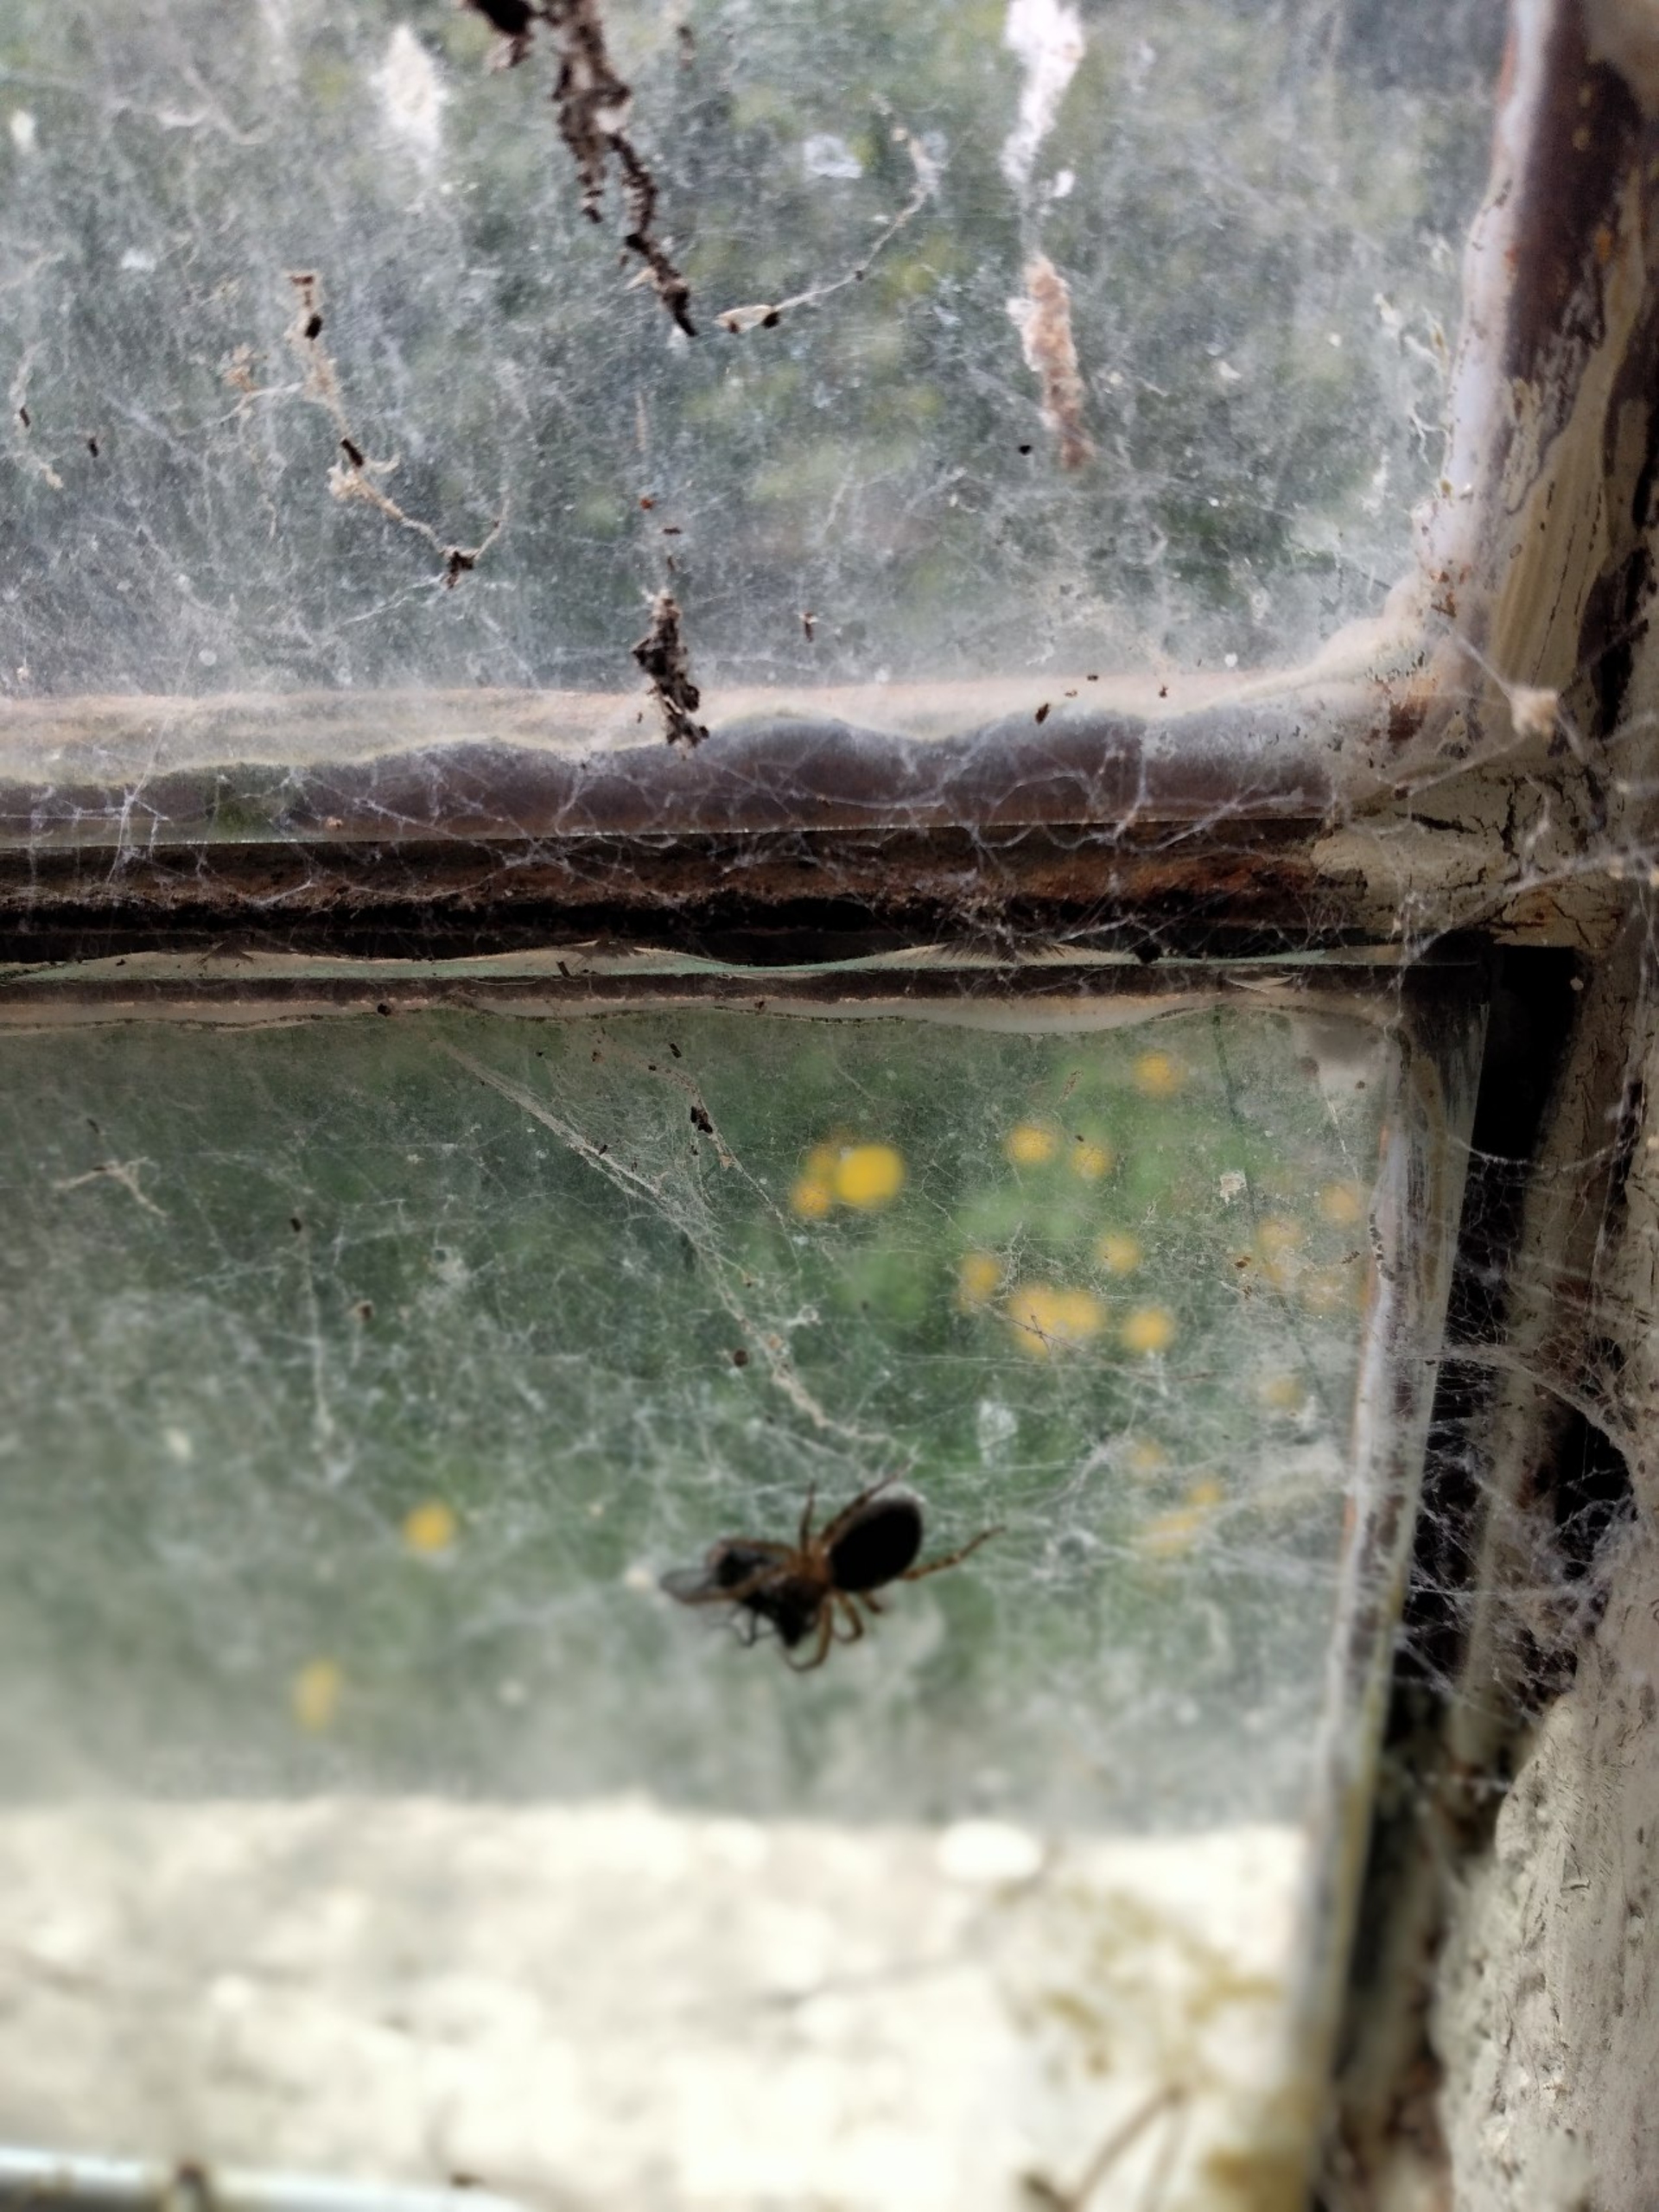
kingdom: Animalia
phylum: Arthropoda
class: Arachnida
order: Araneae
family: Amaurobiidae
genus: Amaurobius
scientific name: Amaurobius
